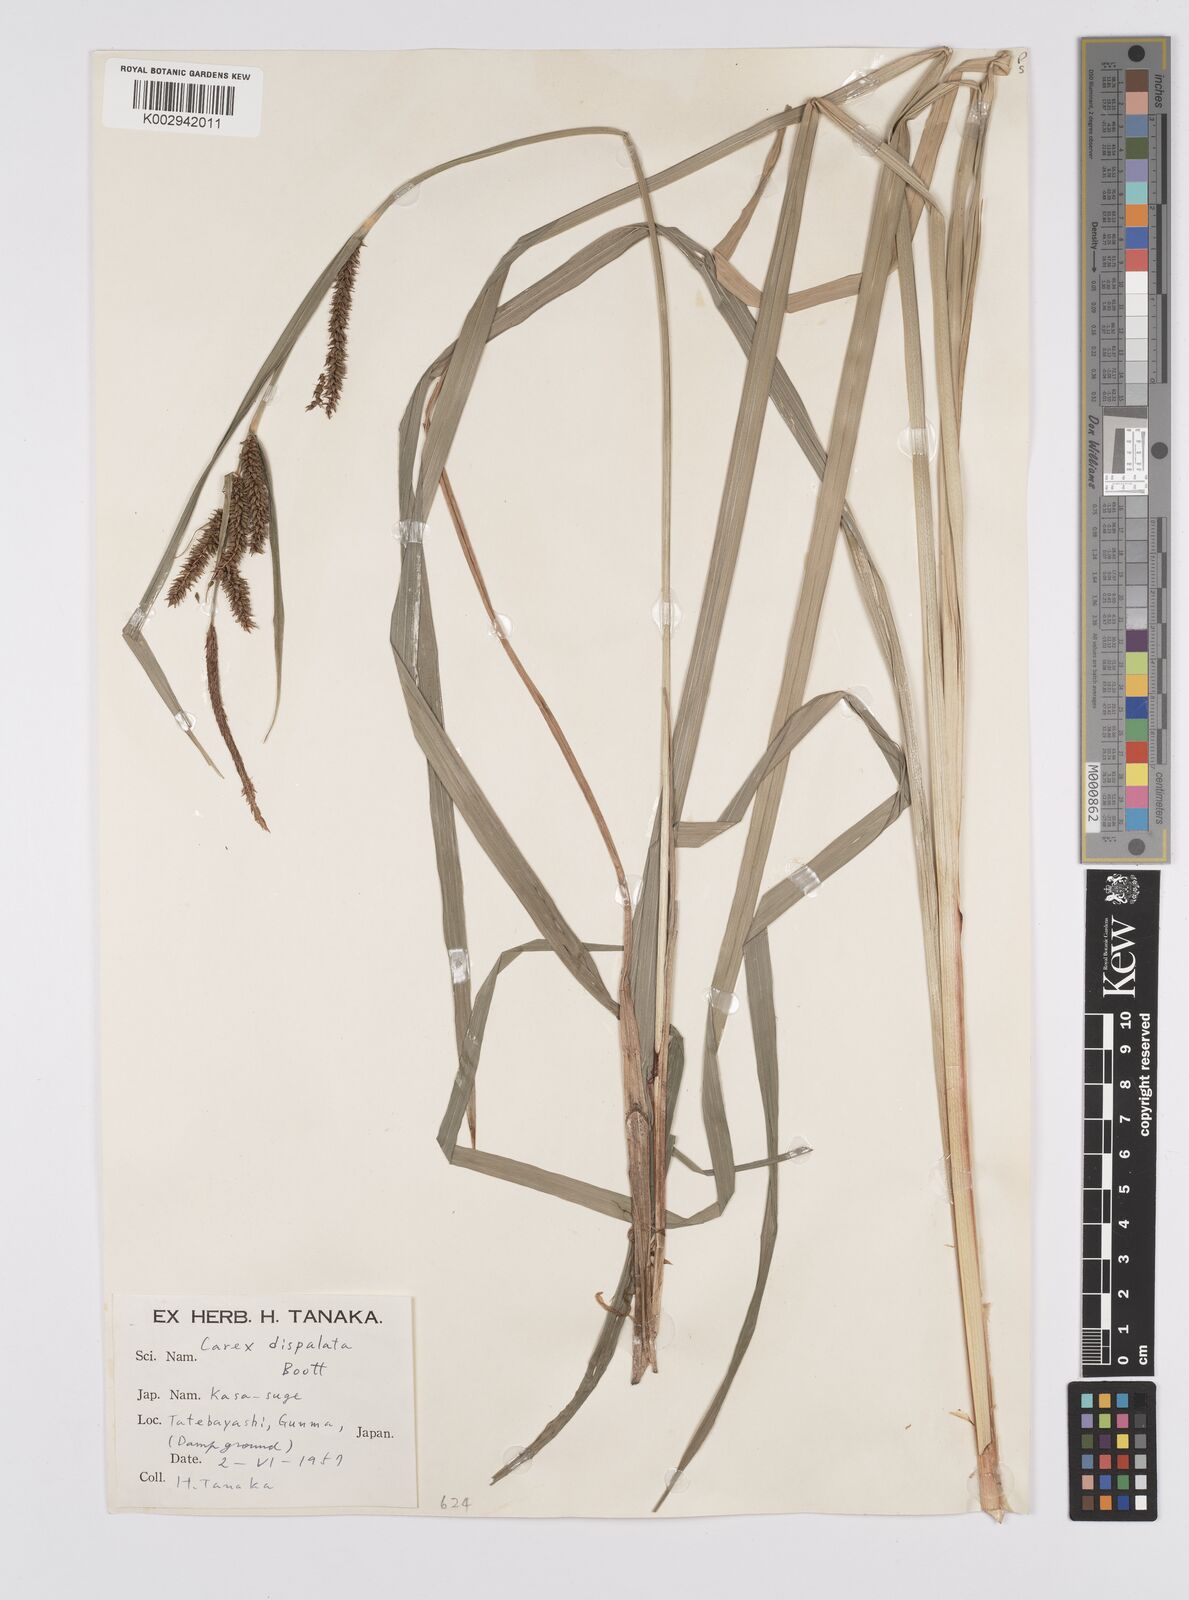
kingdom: Plantae
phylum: Tracheophyta
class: Liliopsida
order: Poales
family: Cyperaceae
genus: Carex
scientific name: Carex dispalata
